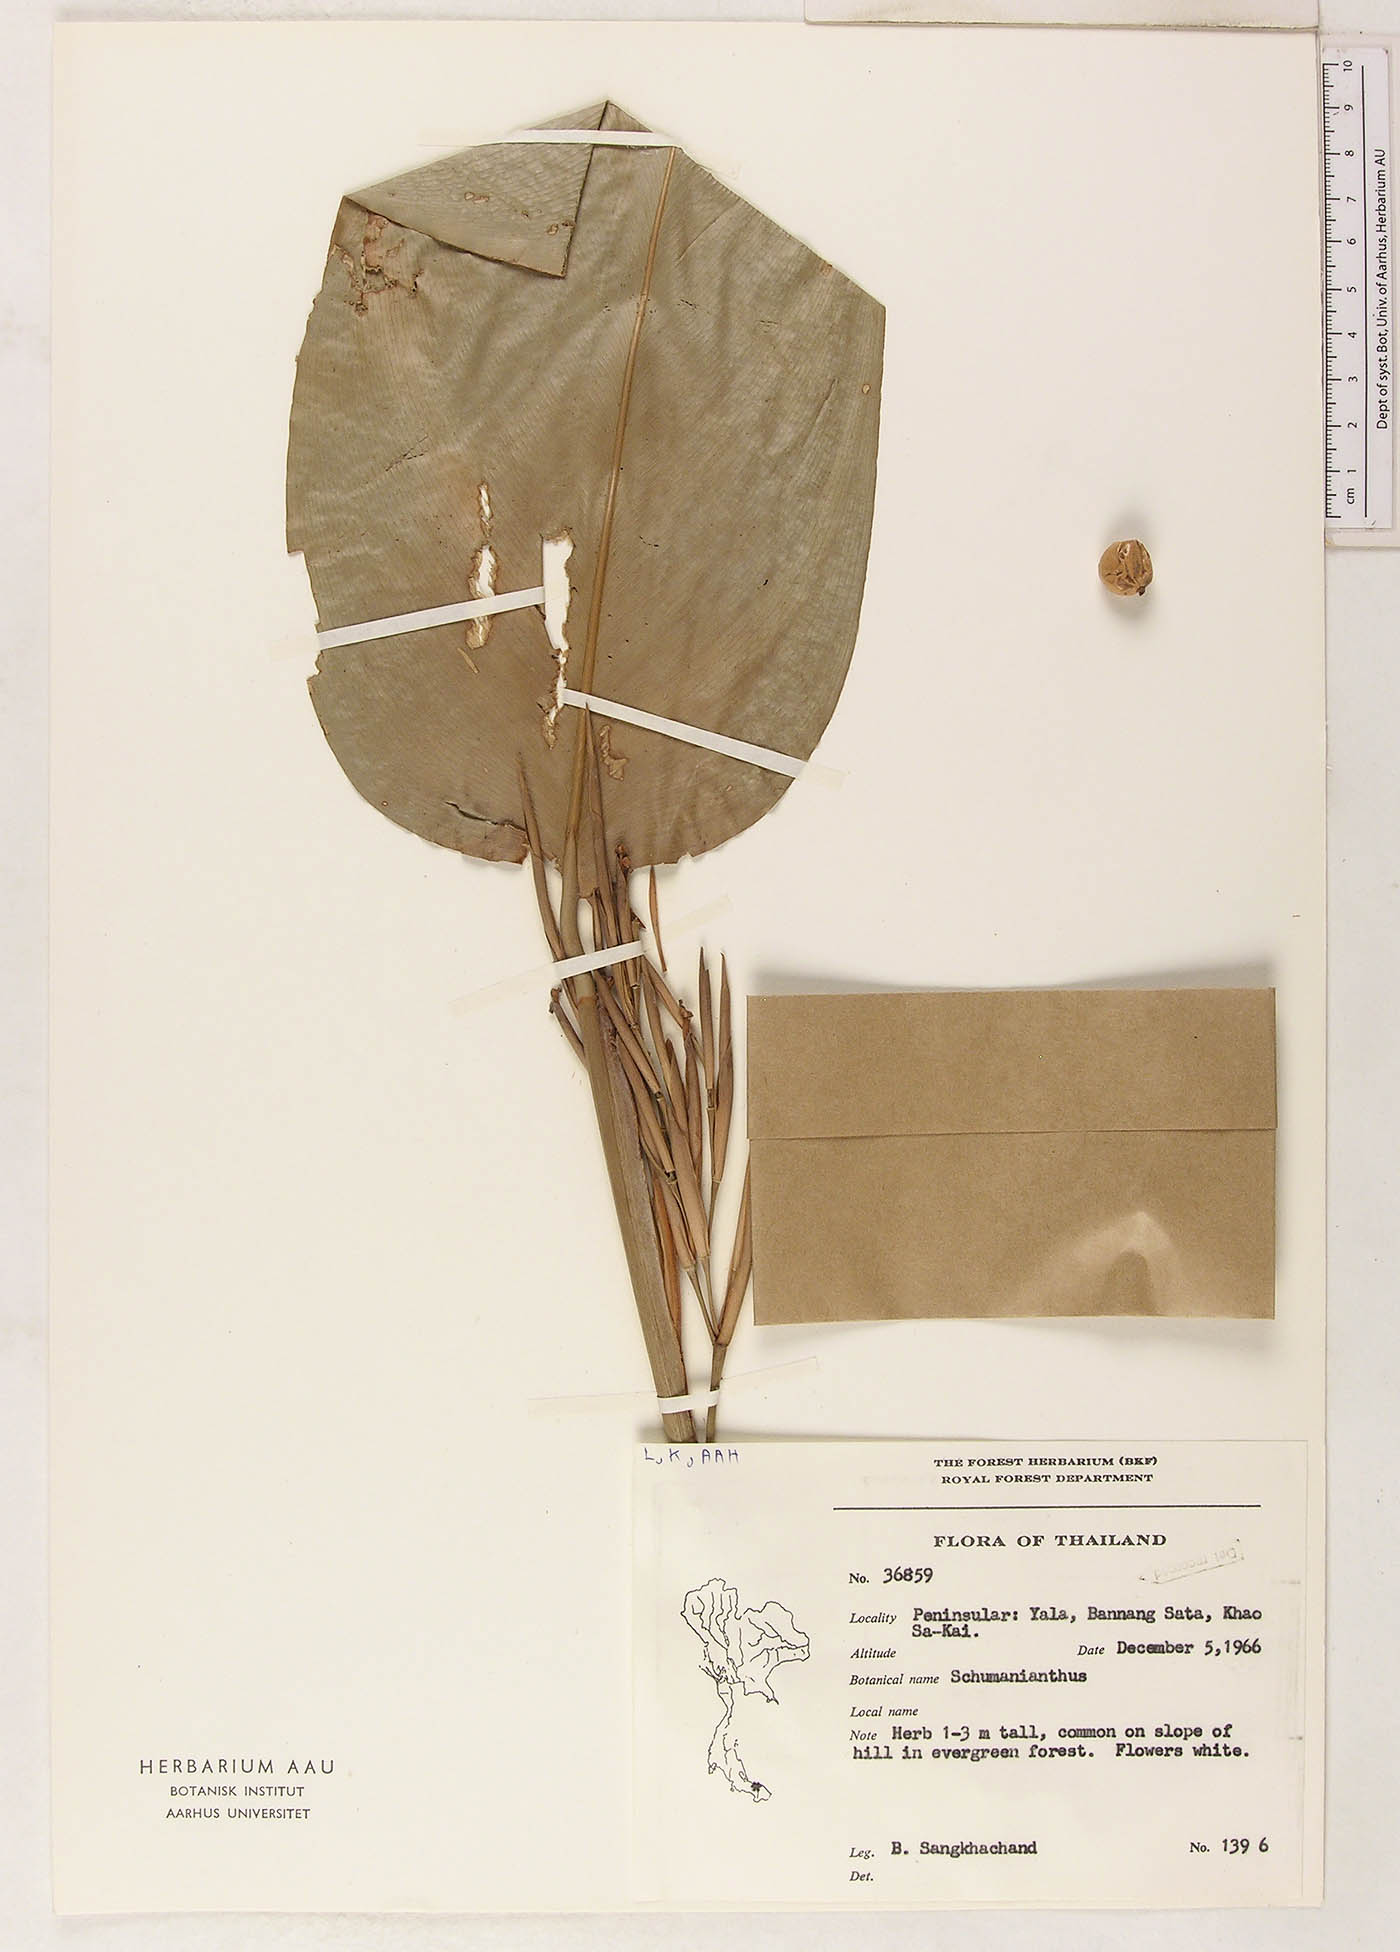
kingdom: Plantae
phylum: Tracheophyta
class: Liliopsida
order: Zingiberales
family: Marantaceae
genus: Donax
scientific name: Donax canniformis
